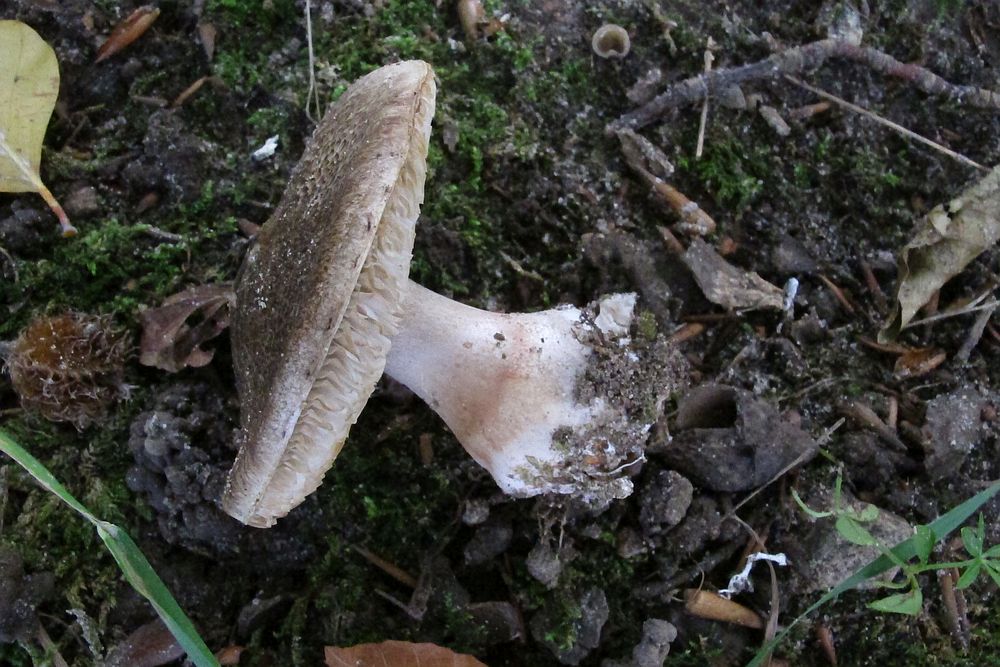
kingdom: Fungi
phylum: Basidiomycota
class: Agaricomycetes
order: Agaricales
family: Tricholomataceae
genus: Tricholoma
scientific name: Tricholoma basirubens
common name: rødfodet ridderhat
